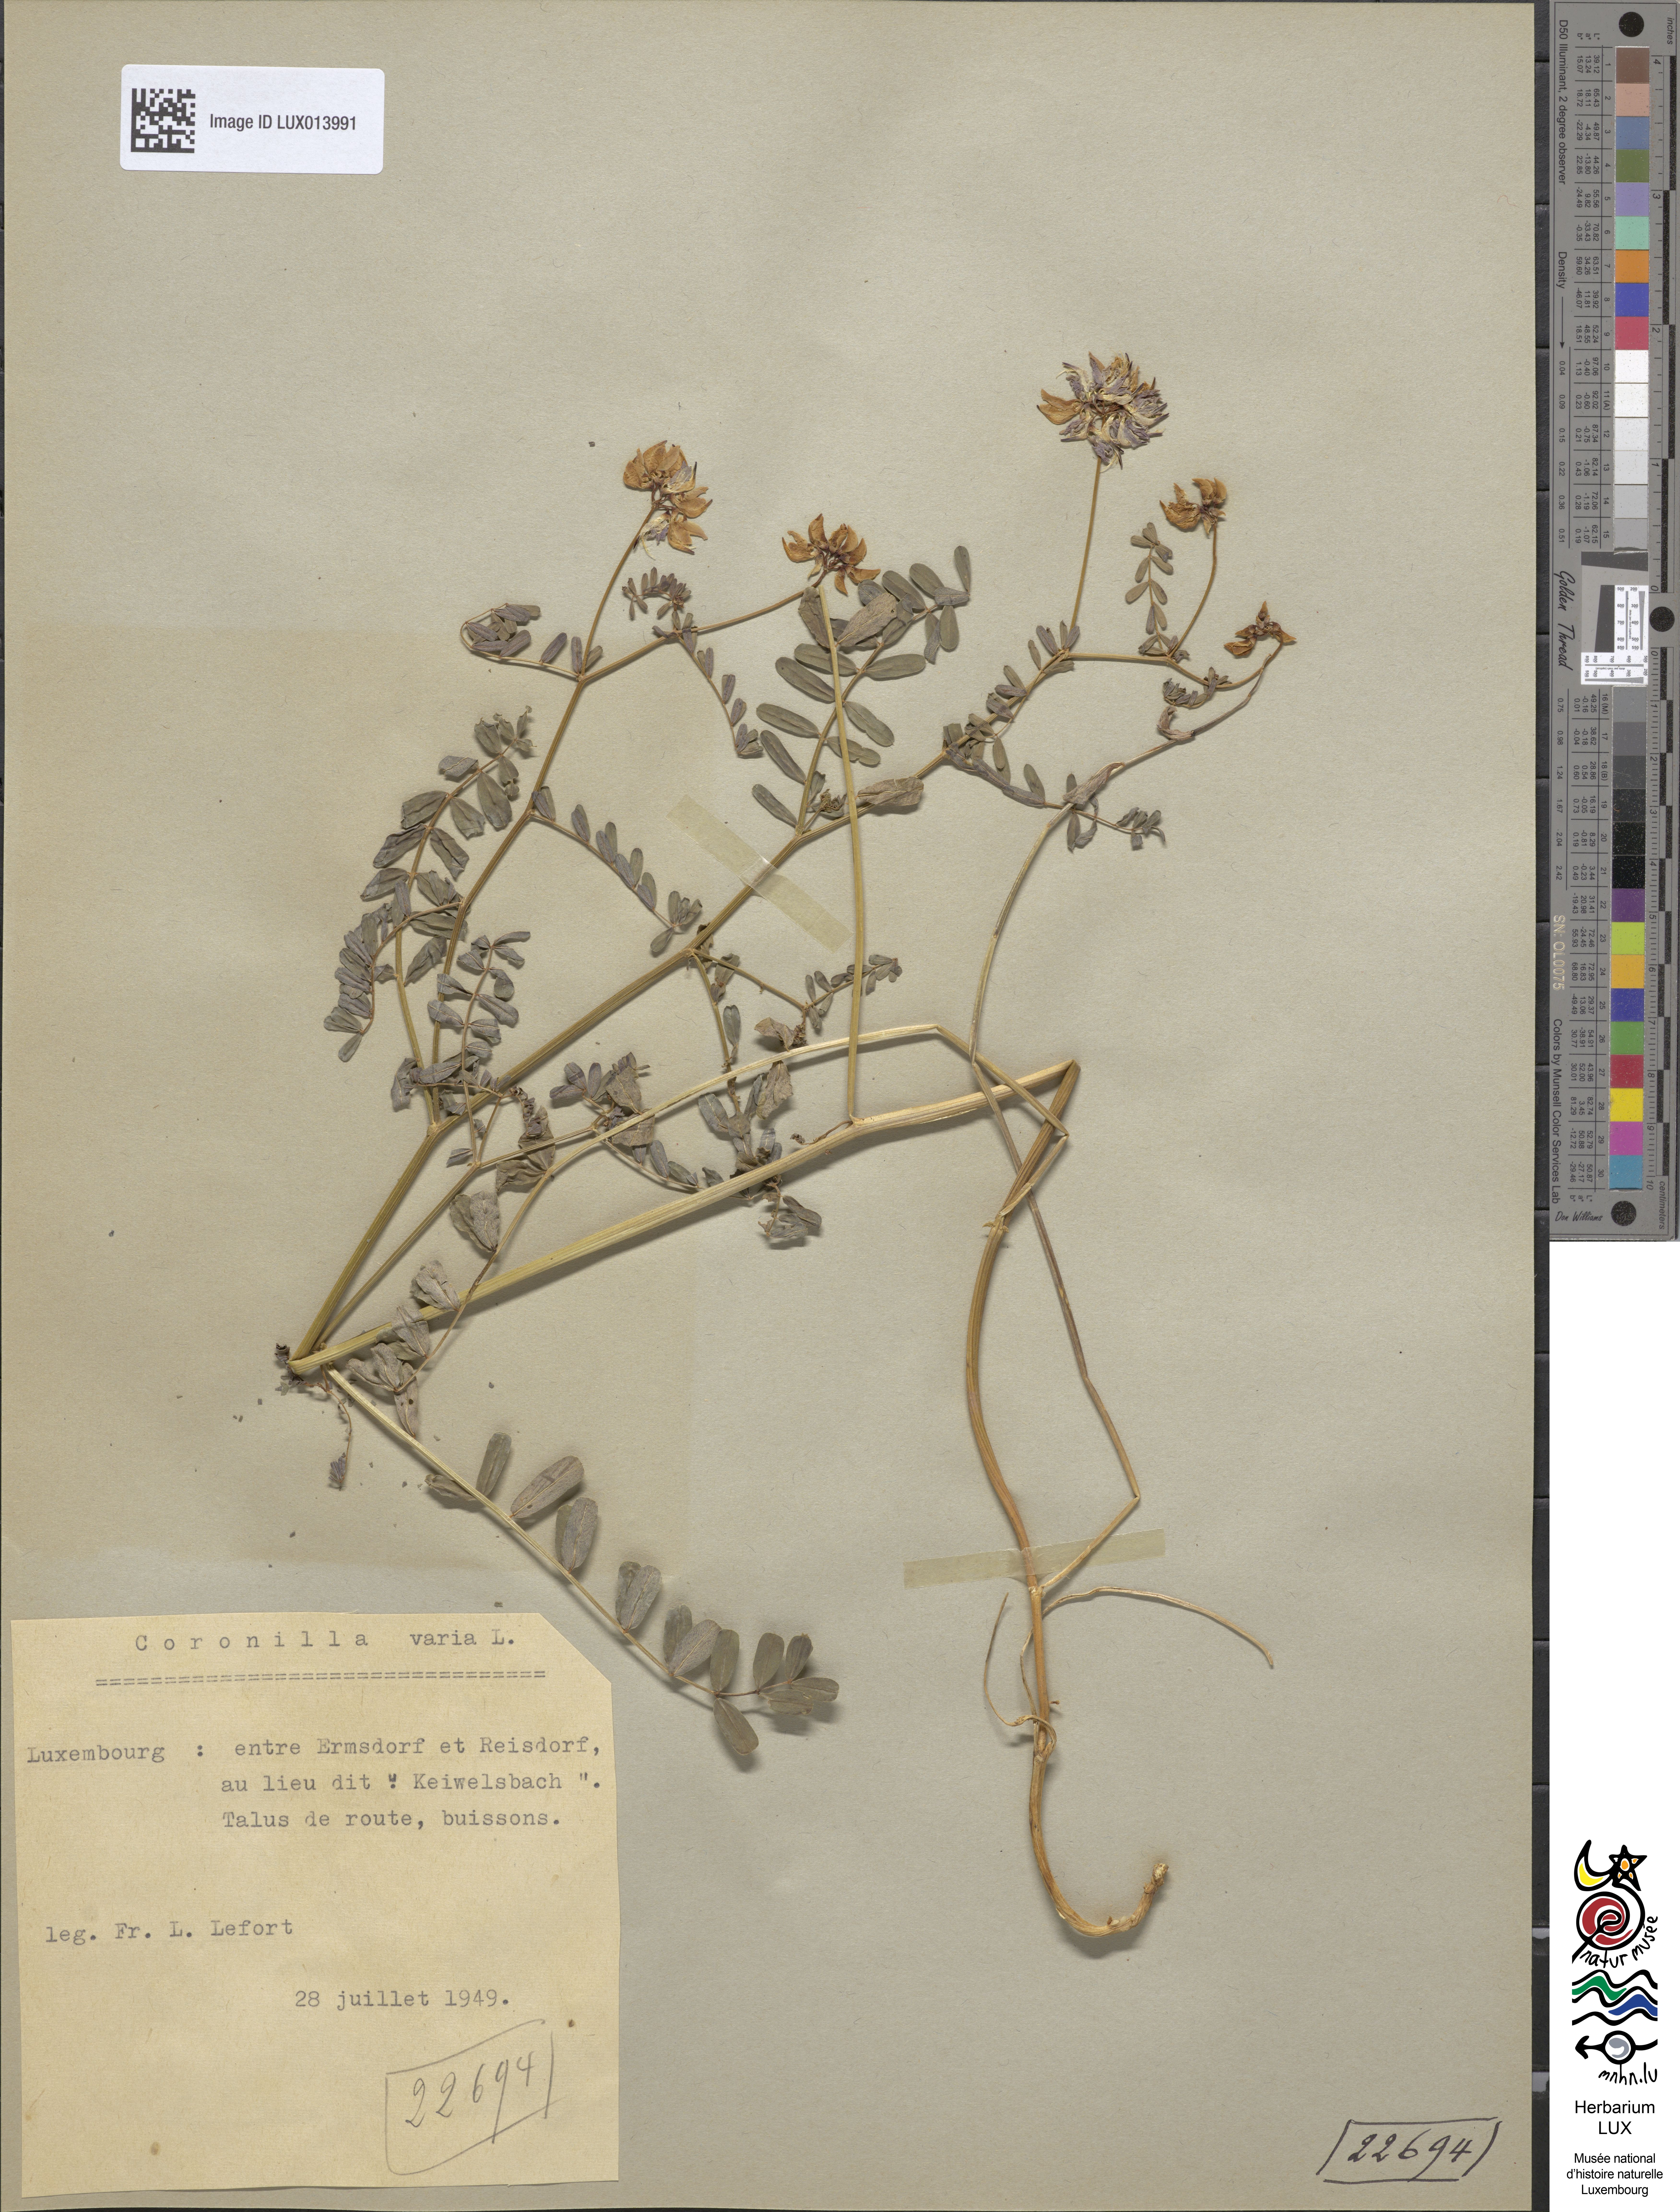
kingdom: Plantae
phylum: Tracheophyta
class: Magnoliopsida
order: Fabales
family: Fabaceae
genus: Coronilla
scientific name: Coronilla varia
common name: Crownvetch
